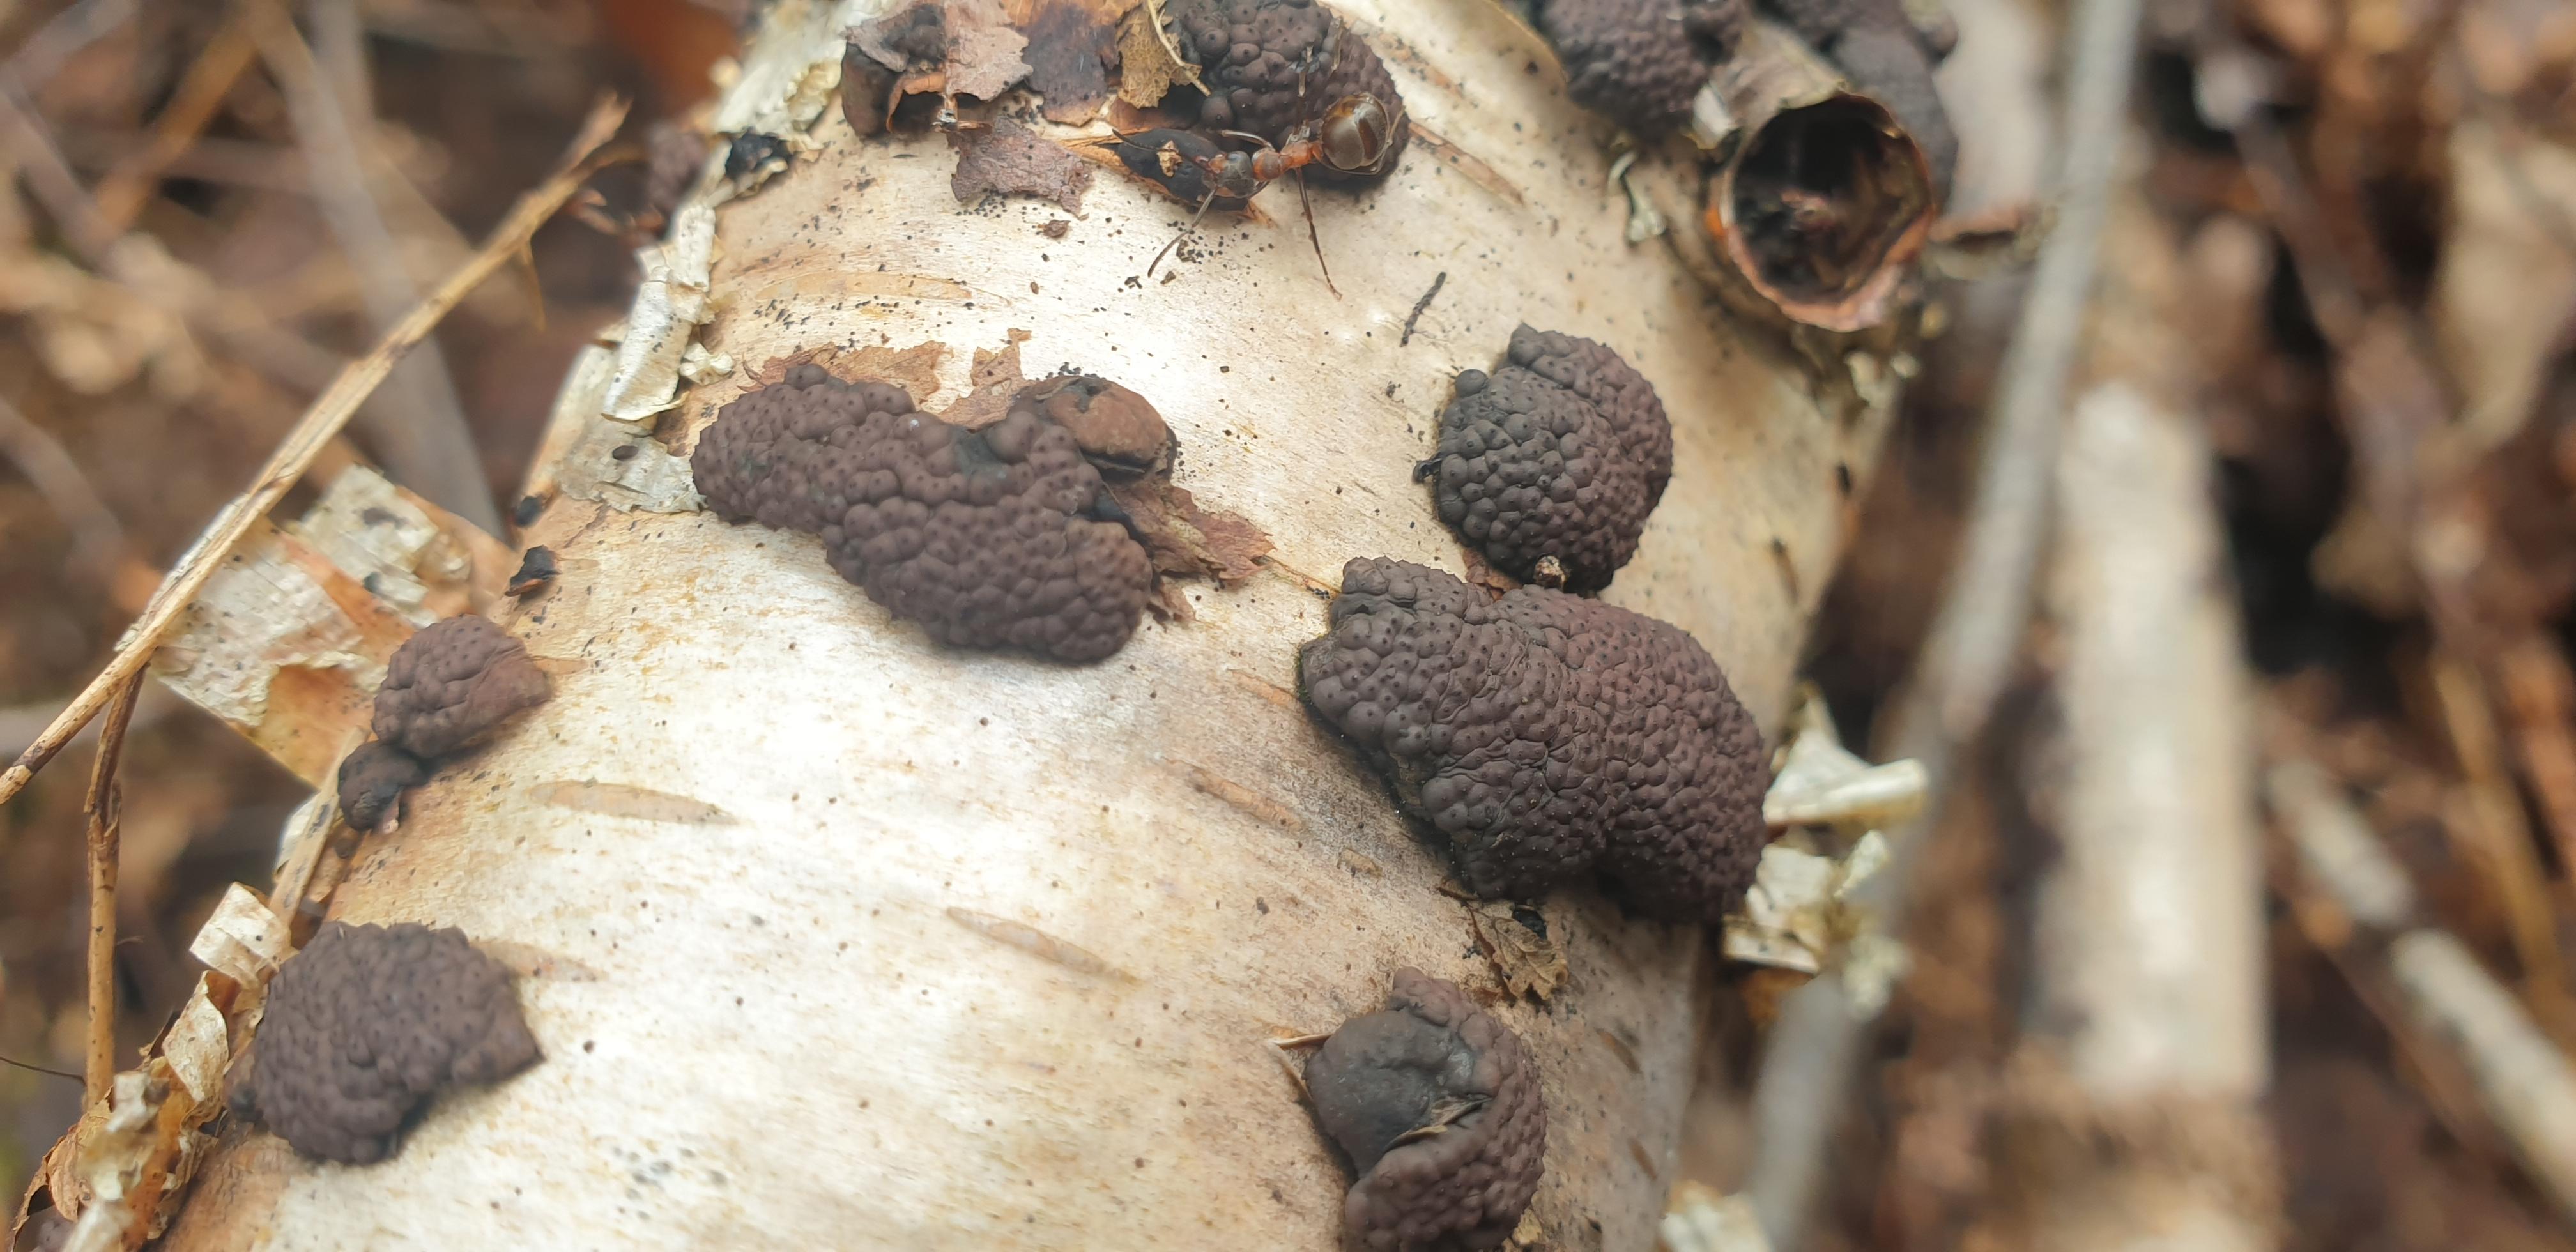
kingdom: Fungi
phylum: Ascomycota
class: Sordariomycetes
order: Xylariales
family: Hypoxylaceae
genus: Jackrogersella
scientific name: Jackrogersella multiformis
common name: foranderlig kulbær
